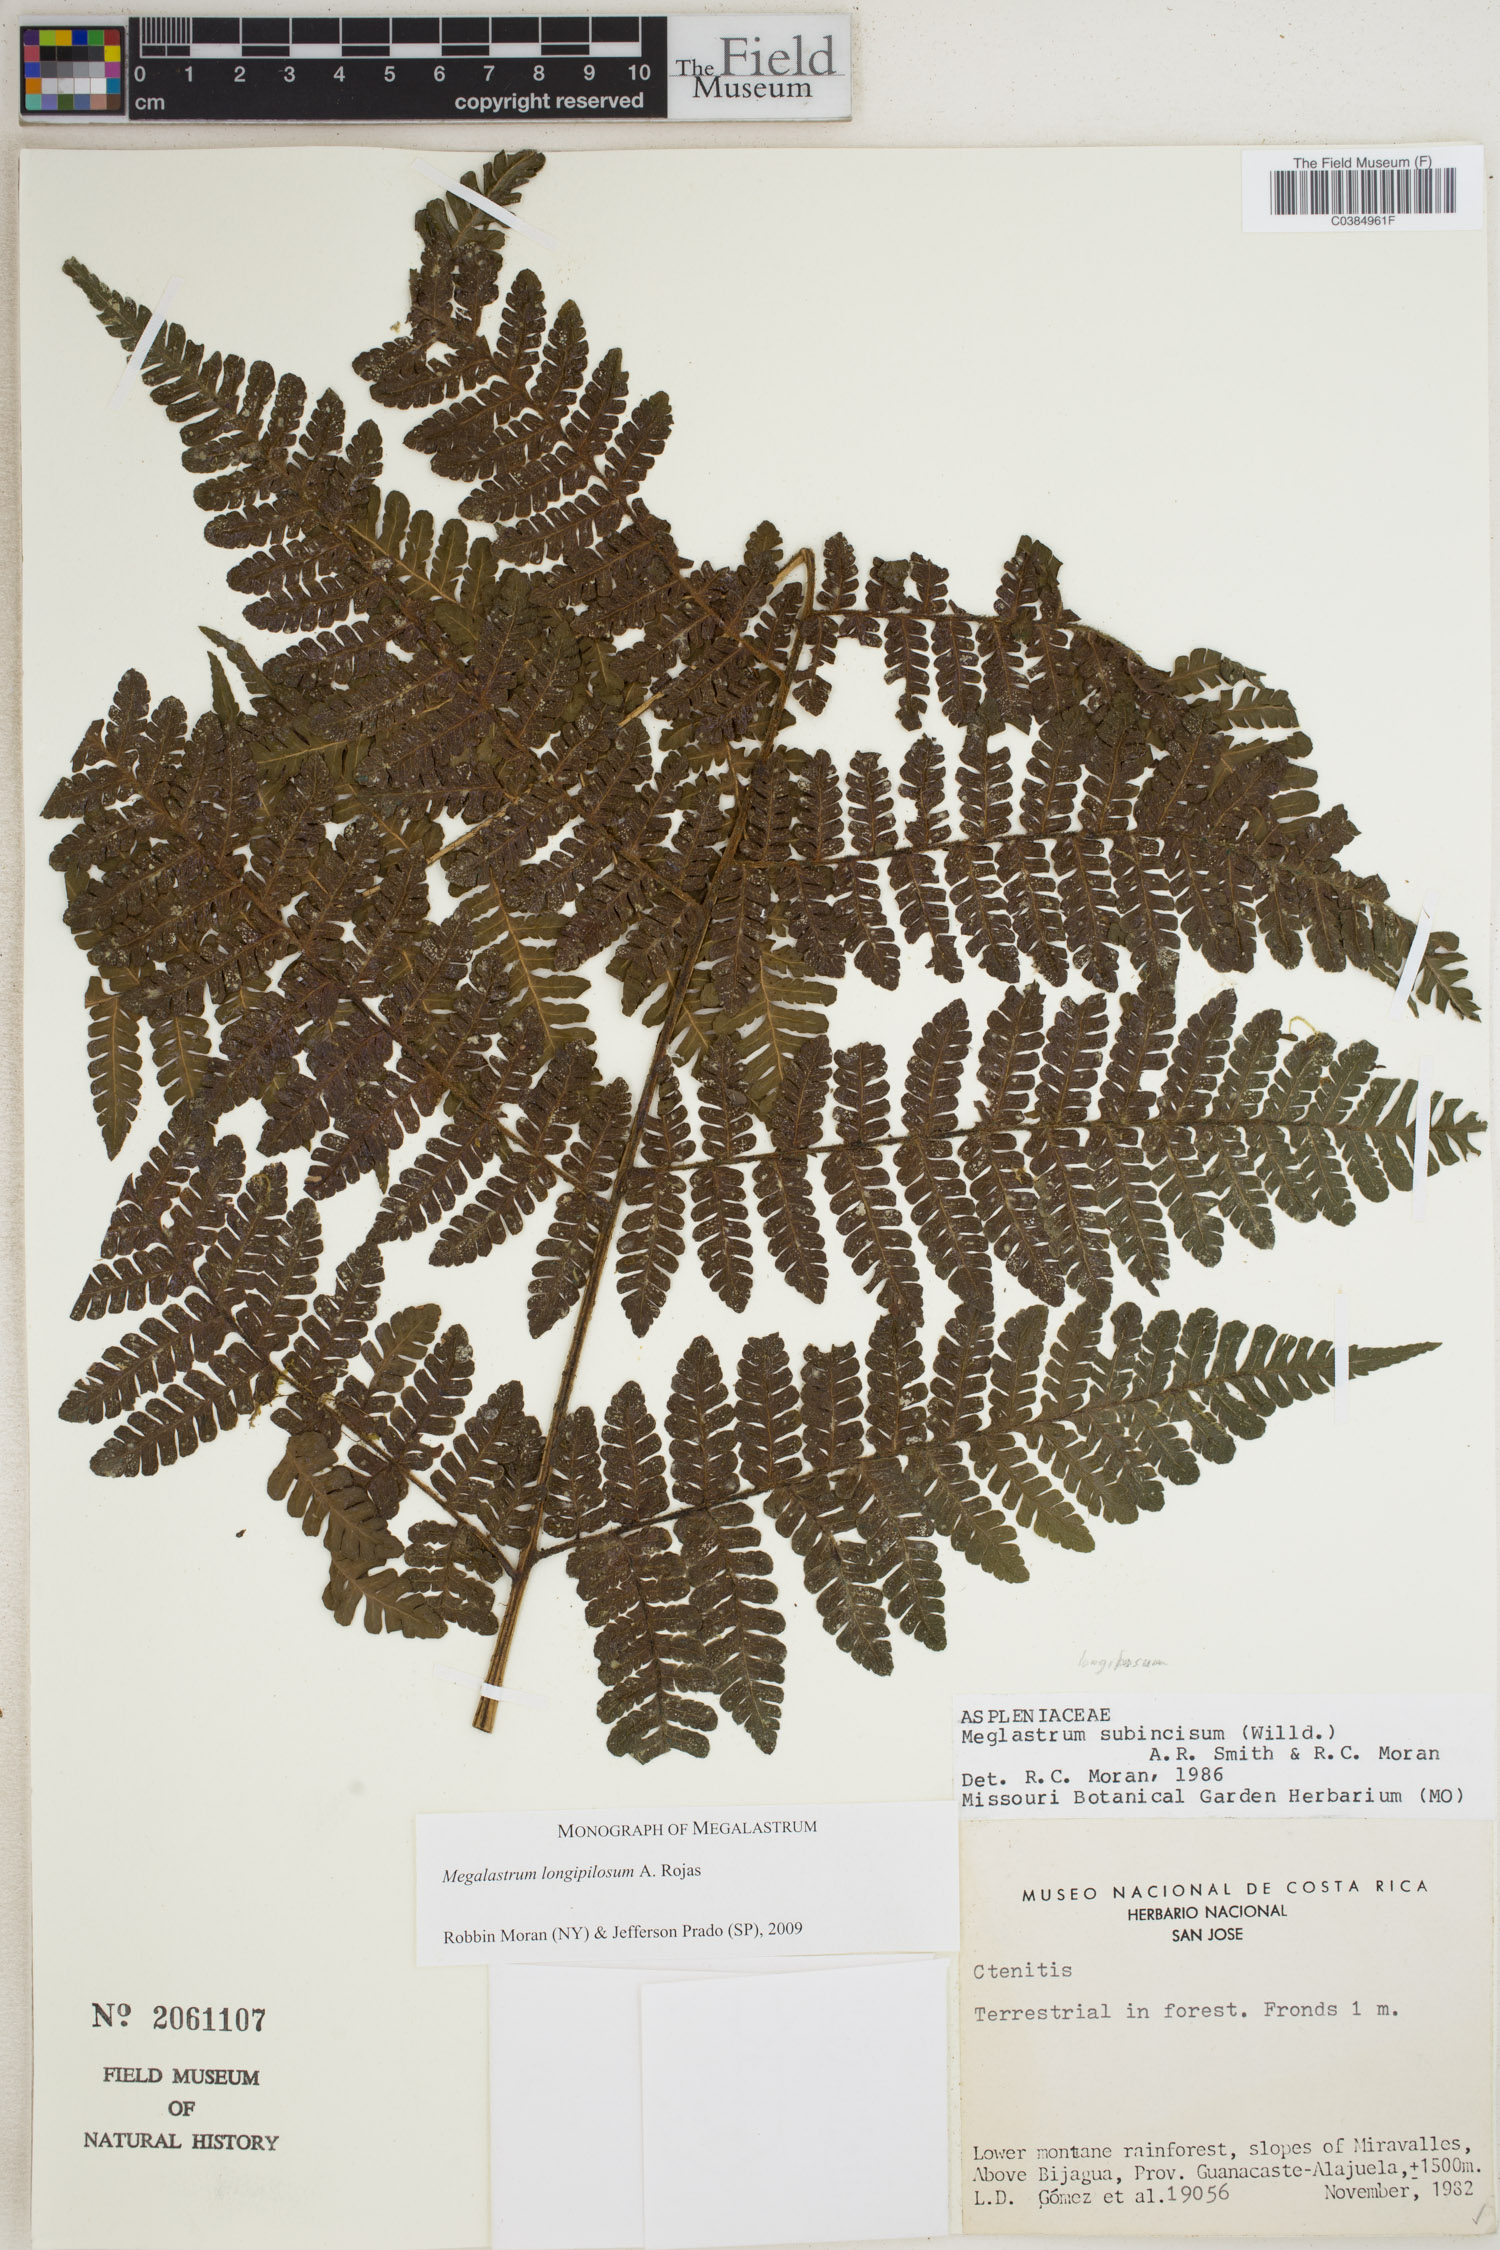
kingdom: Plantae
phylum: Tracheophyta
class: Polypodiopsida
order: Polypodiales
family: Dryopteridaceae
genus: Megalastrum
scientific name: Megalastrum longipilosum
